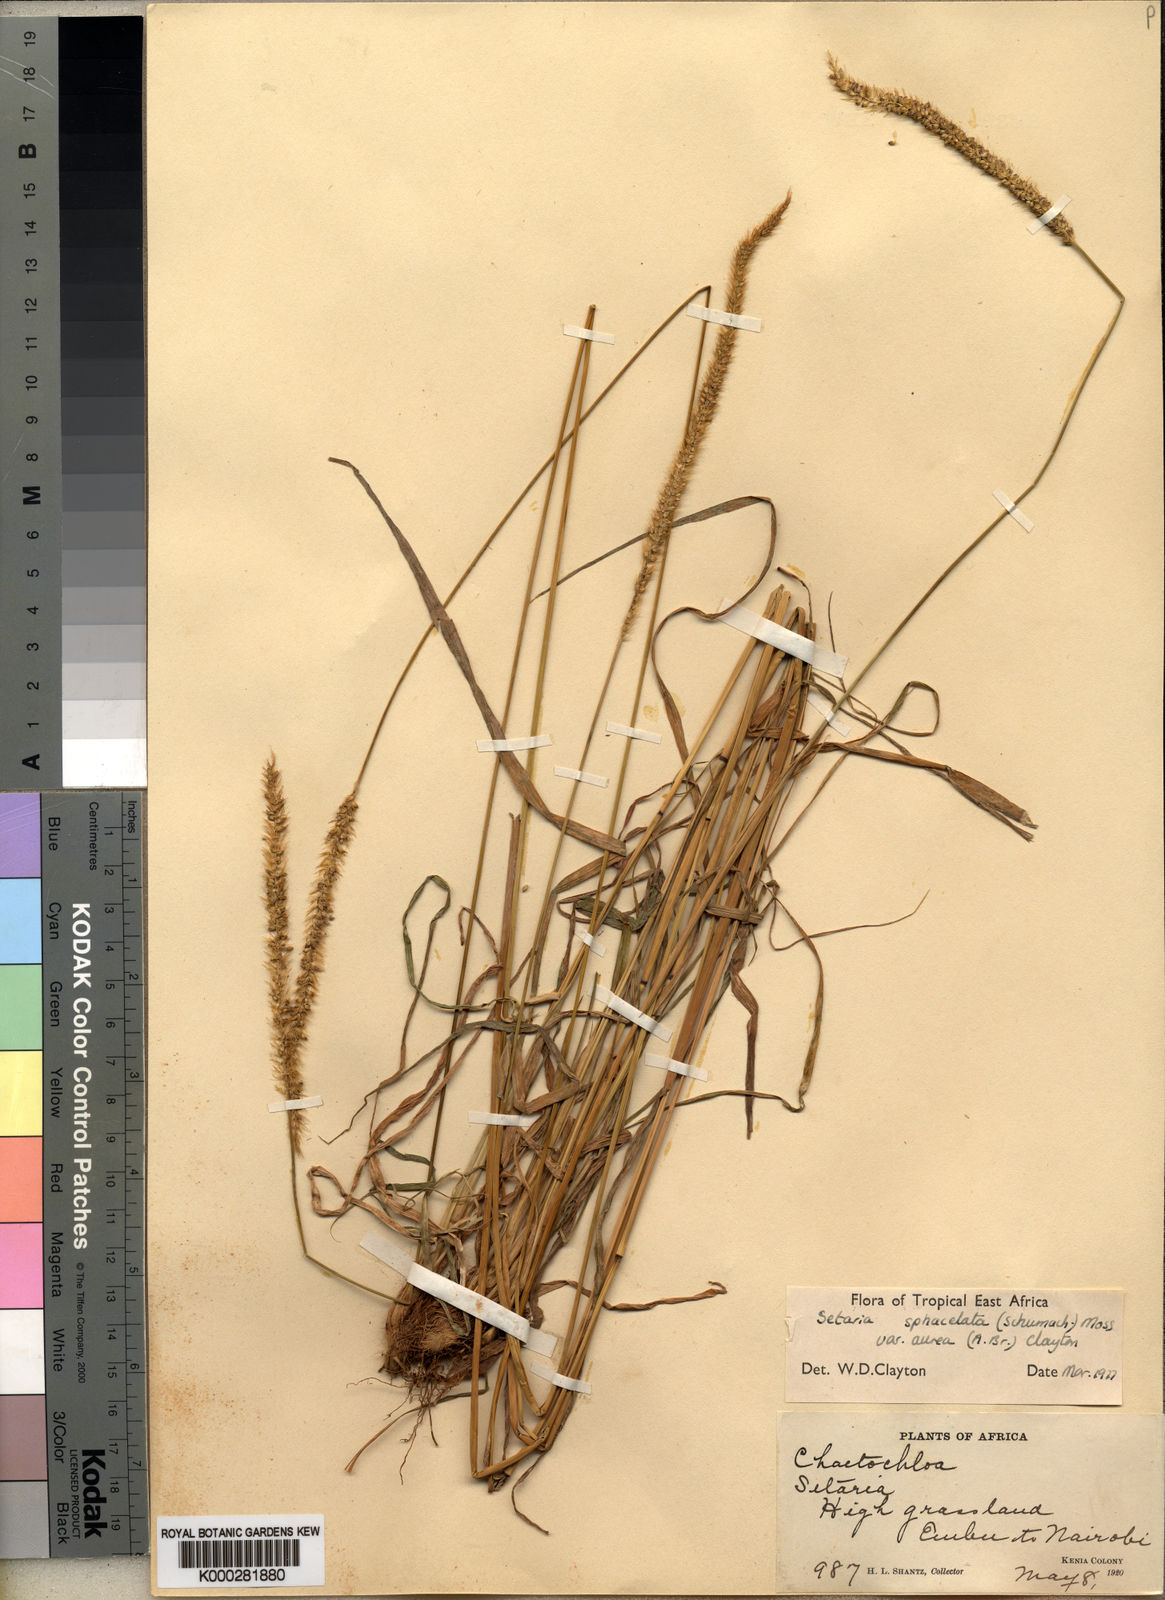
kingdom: Plantae
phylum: Tracheophyta
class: Liliopsida
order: Poales
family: Poaceae
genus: Setaria
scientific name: Setaria sphacelata
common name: African bristlegrass
